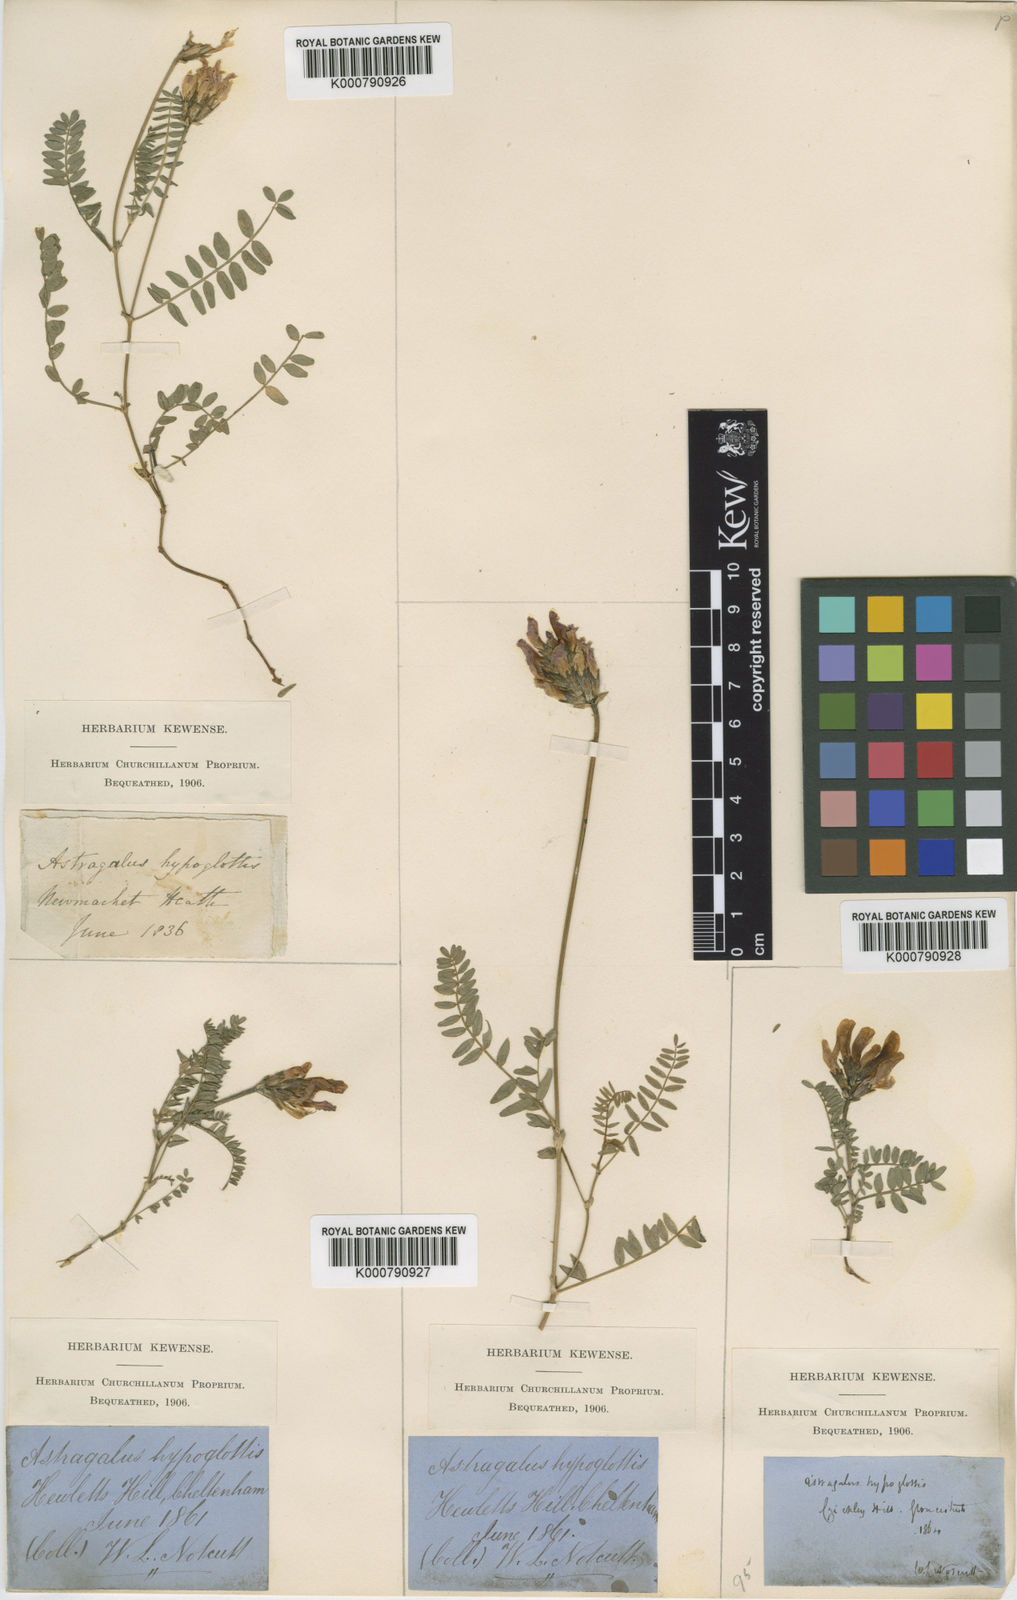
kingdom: Plantae
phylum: Tracheophyta
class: Magnoliopsida
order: Fabales
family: Fabaceae
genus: Astragalus
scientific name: Astragalus danicus
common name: Purple milk-vetch
